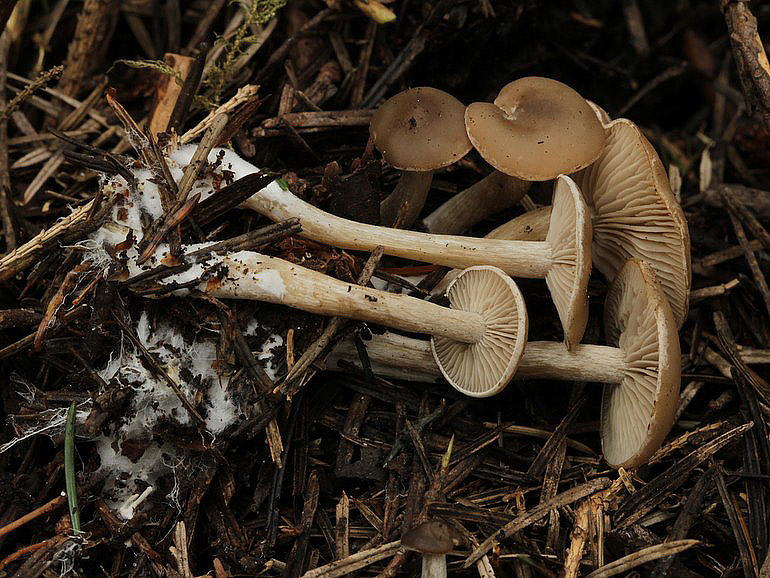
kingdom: Fungi
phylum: Basidiomycota
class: Agaricomycetes
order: Agaricales
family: Tricholomataceae
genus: Clitocybe
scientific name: Clitocybe obsoleta
